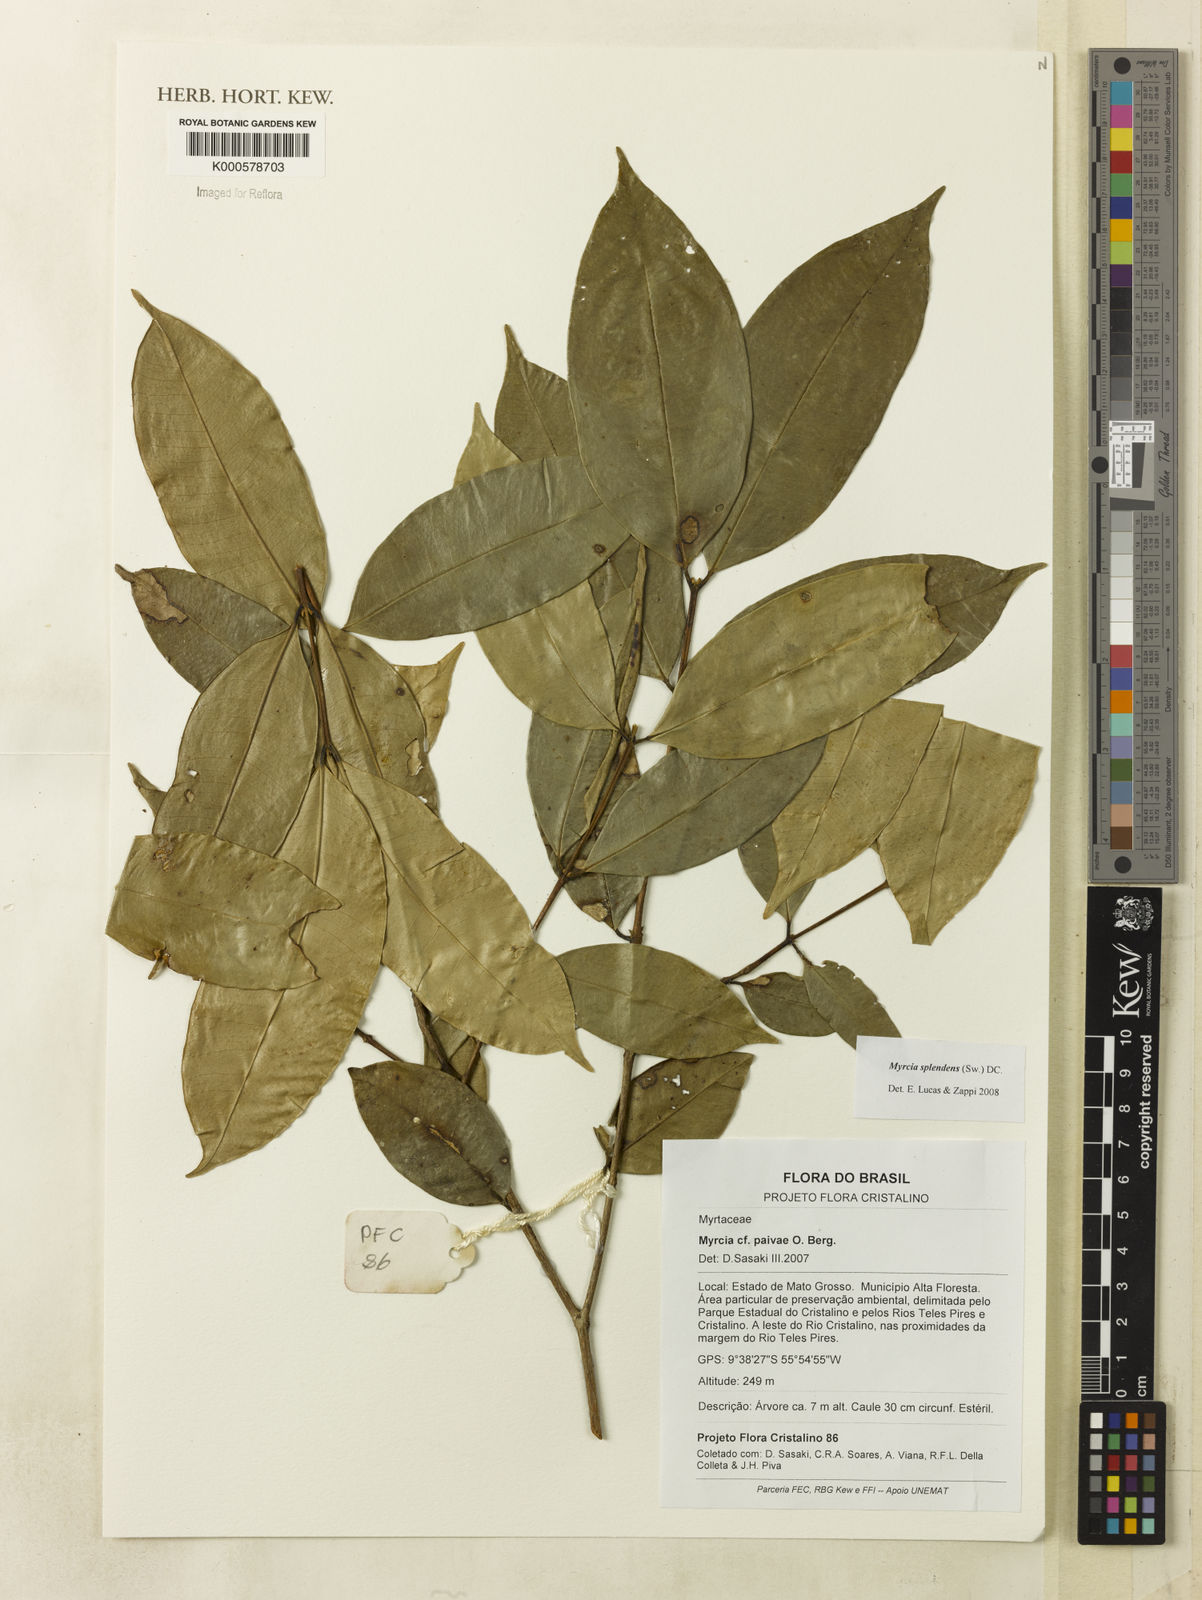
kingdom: Plantae
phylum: Tracheophyta
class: Magnoliopsida
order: Myrtales
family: Myrtaceae
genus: Myrcia
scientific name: Myrcia splendens
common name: Surinam cherry
